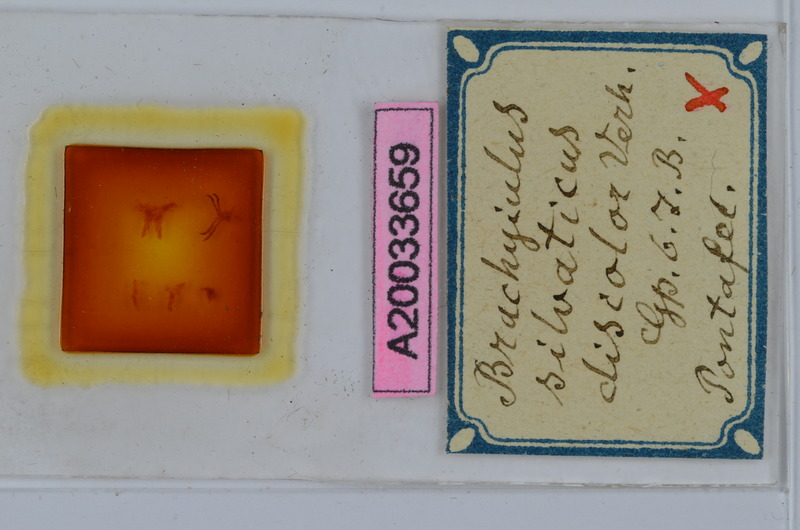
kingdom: Animalia
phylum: Arthropoda
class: Diplopoda
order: Julida
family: Julidae
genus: Megaphyllum
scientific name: Megaphyllum silvaticum
